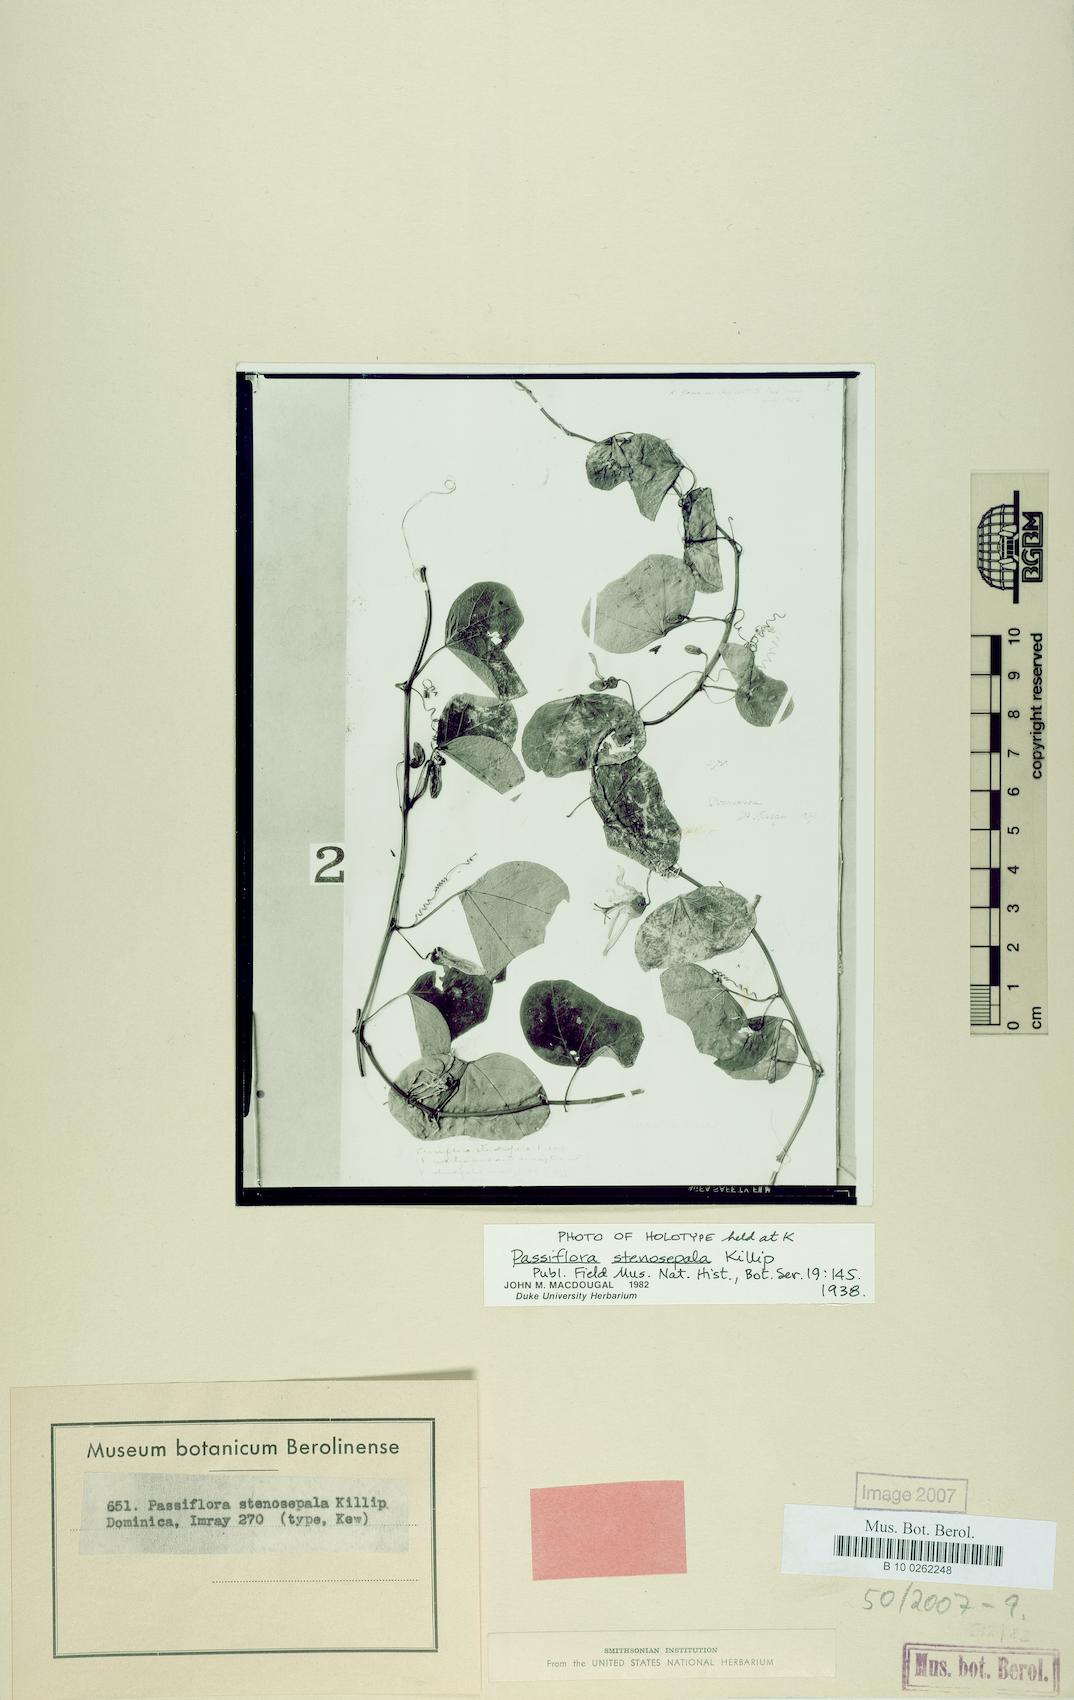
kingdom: Plantae
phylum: Tracheophyta
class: Magnoliopsida
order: Malpighiales
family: Passifloraceae
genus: Passiflora
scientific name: Passiflora stenosepala
